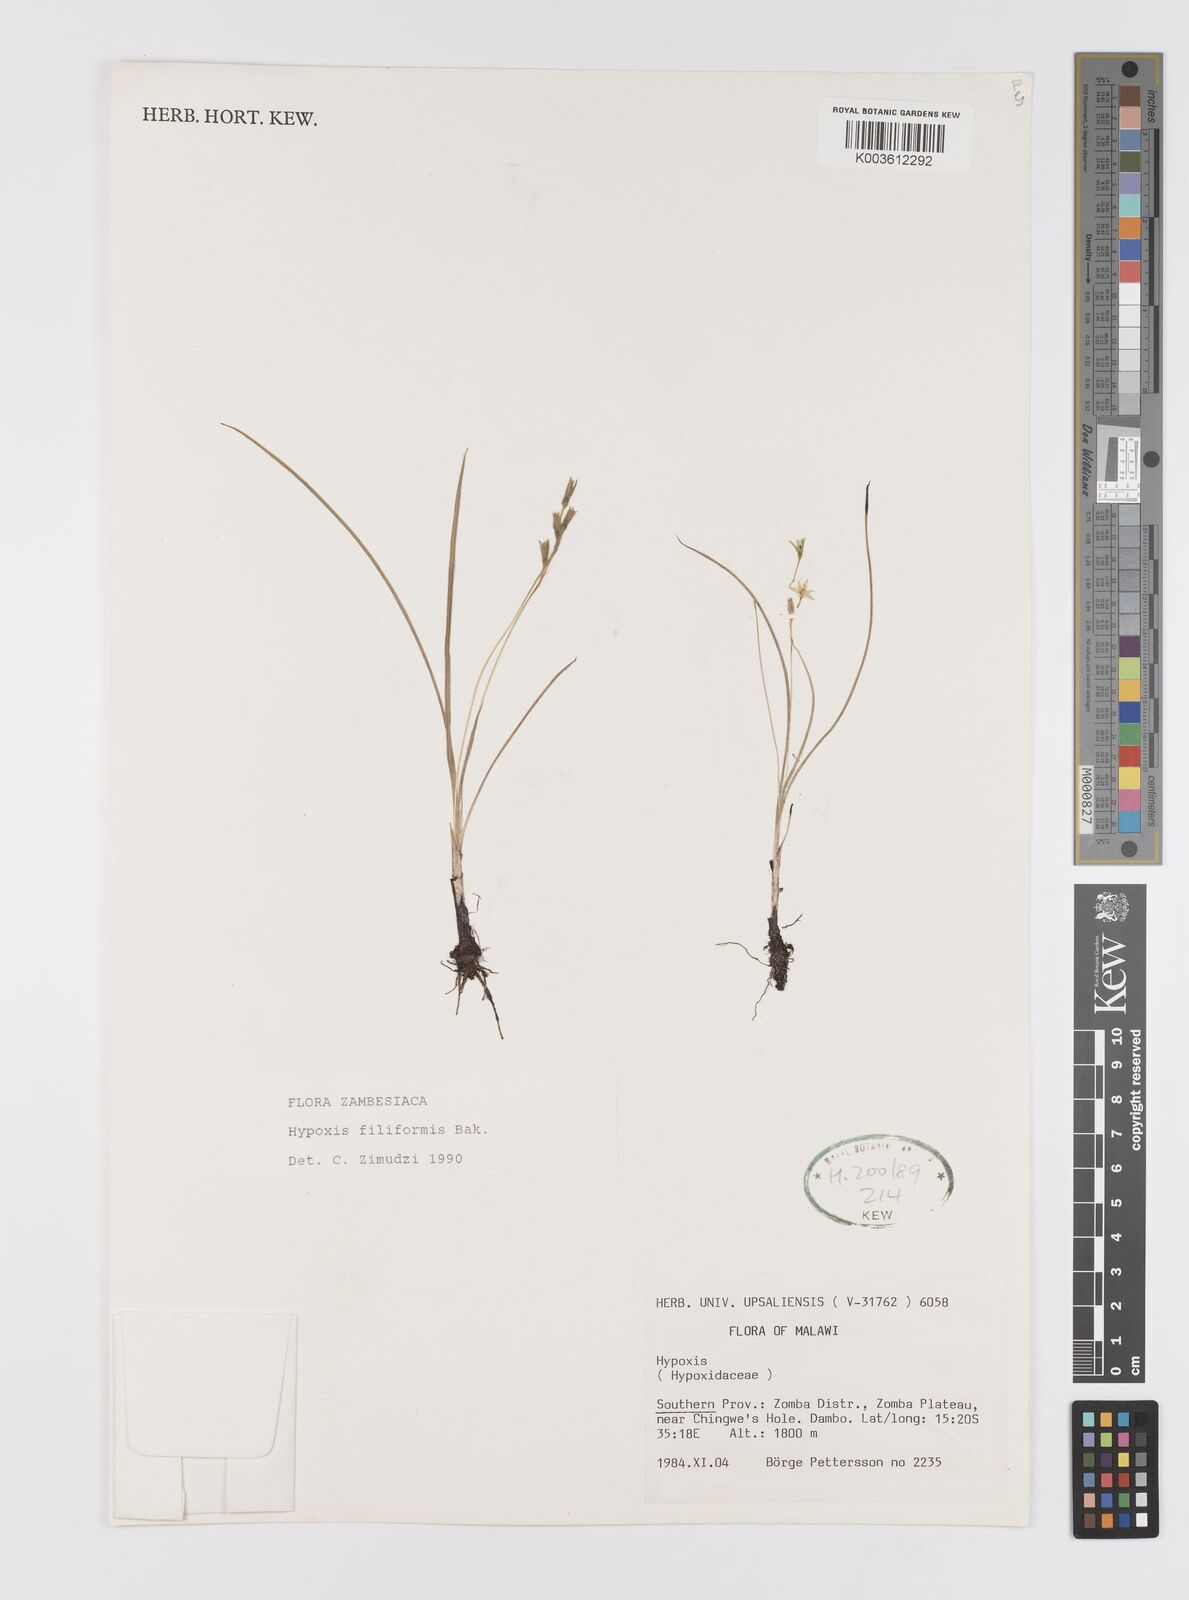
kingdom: Plantae
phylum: Tracheophyta
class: Liliopsida
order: Asparagales
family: Hypoxidaceae
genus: Hypoxis
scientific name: Hypoxis filiformis
